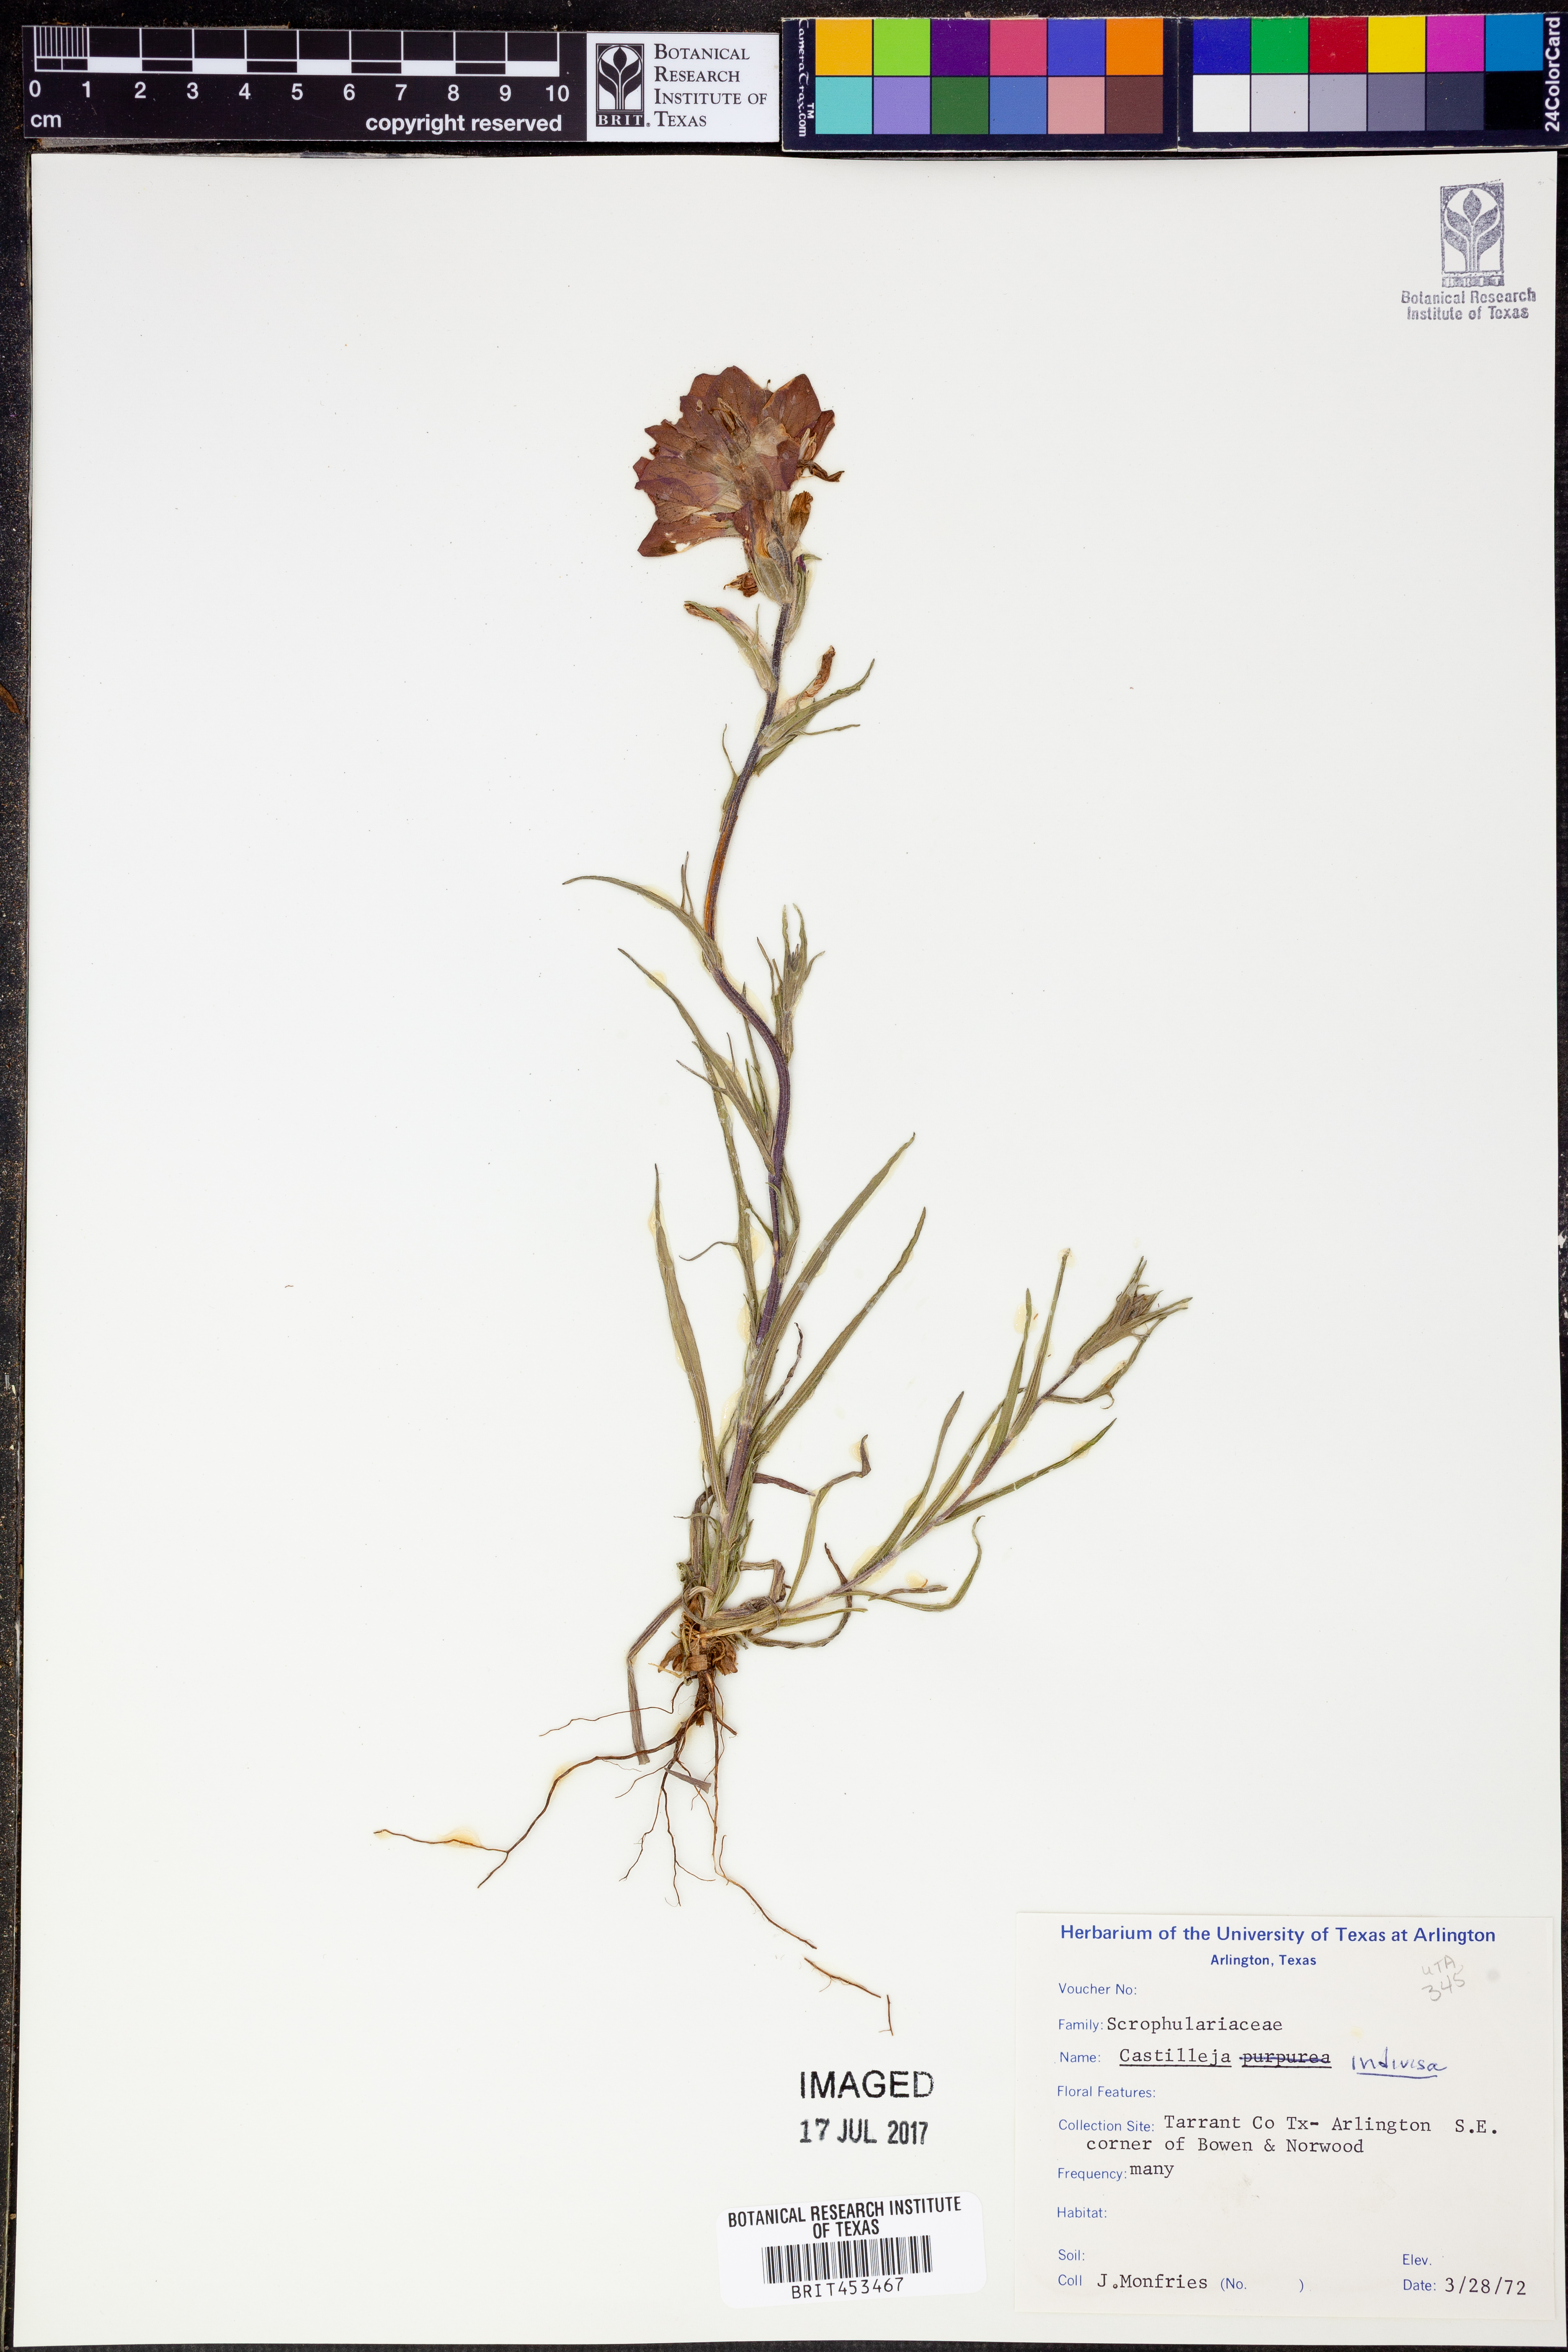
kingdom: Plantae
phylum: Tracheophyta
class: Magnoliopsida
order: Lamiales
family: Orobanchaceae
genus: Castilleja
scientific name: Castilleja indivisa
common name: Texas paintbrush
